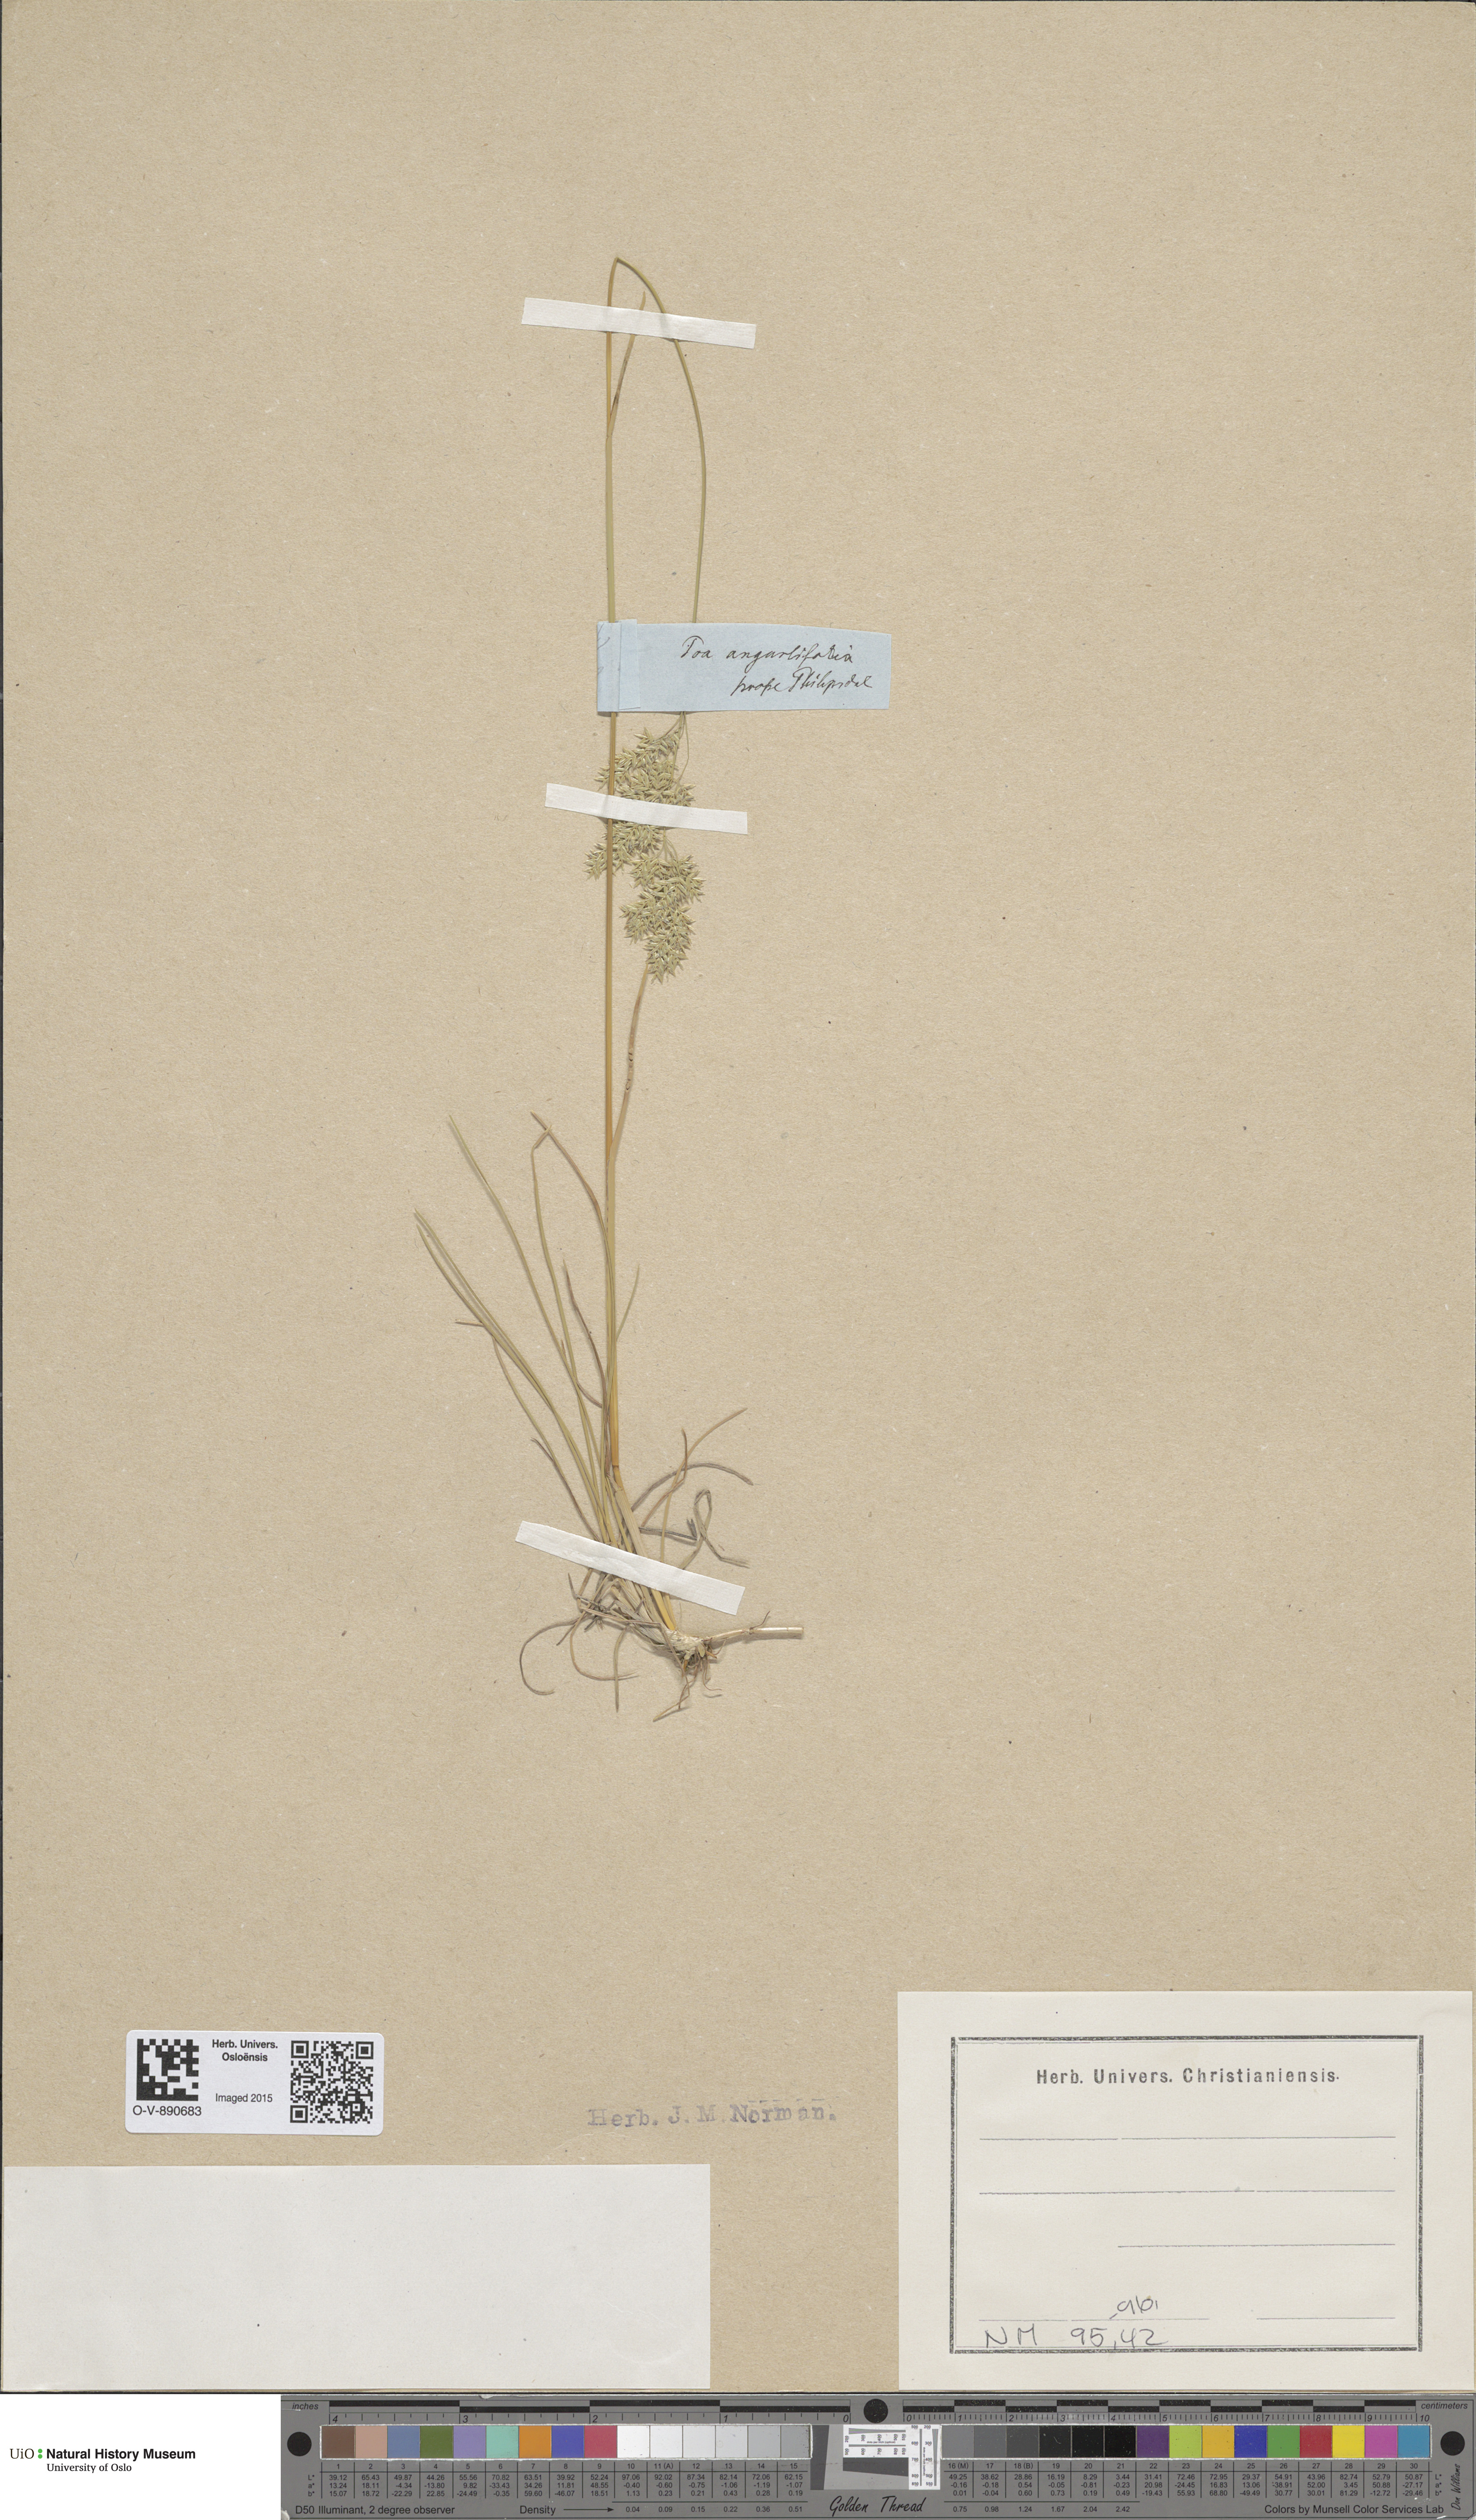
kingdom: Plantae
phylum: Tracheophyta
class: Liliopsida
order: Poales
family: Poaceae
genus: Poa
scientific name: Poa angustifolia
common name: Narrow-leaved meadow-grass
